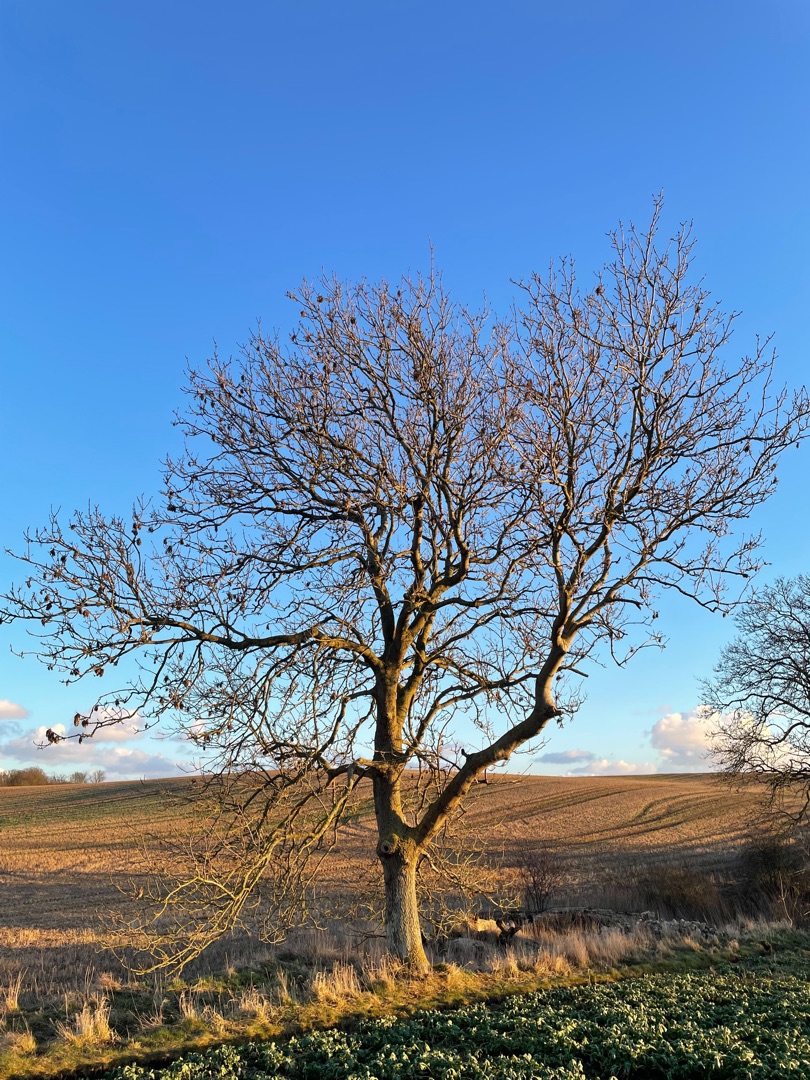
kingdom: Plantae
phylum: Tracheophyta
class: Magnoliopsida
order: Lamiales
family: Oleaceae
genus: Fraxinus
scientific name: Fraxinus excelsior
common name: Ask
